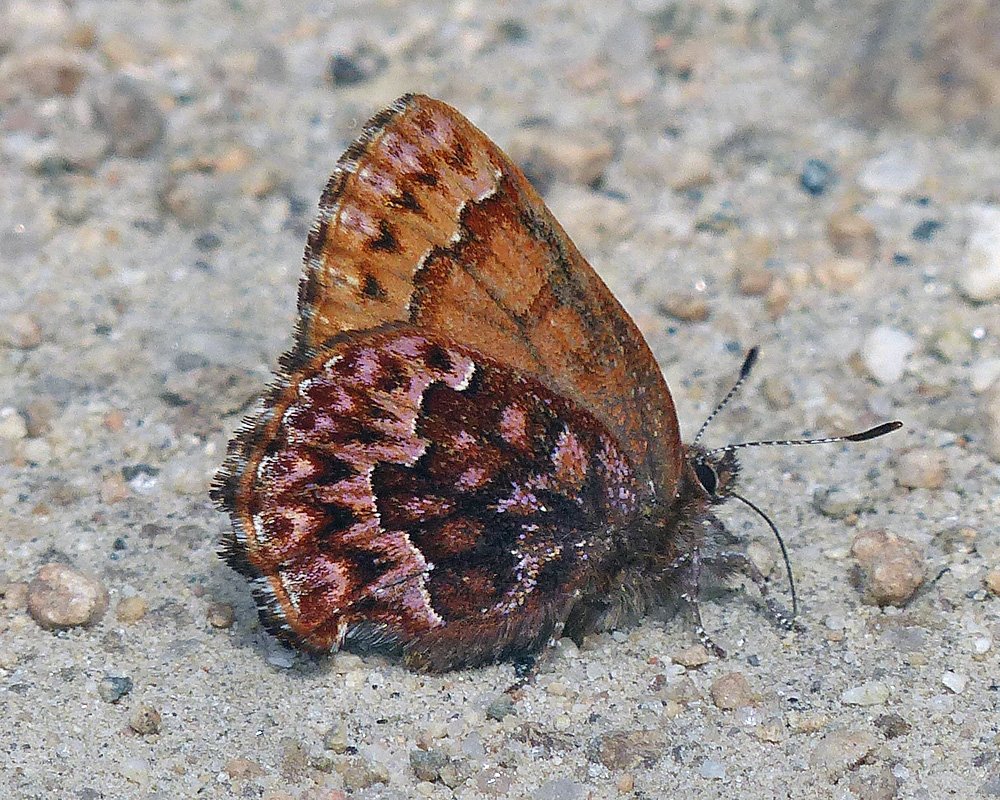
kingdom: Animalia
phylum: Arthropoda
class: Insecta
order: Lepidoptera
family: Lycaenidae
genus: Incisalia
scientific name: Incisalia eryphon
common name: Western Pine Elfin
